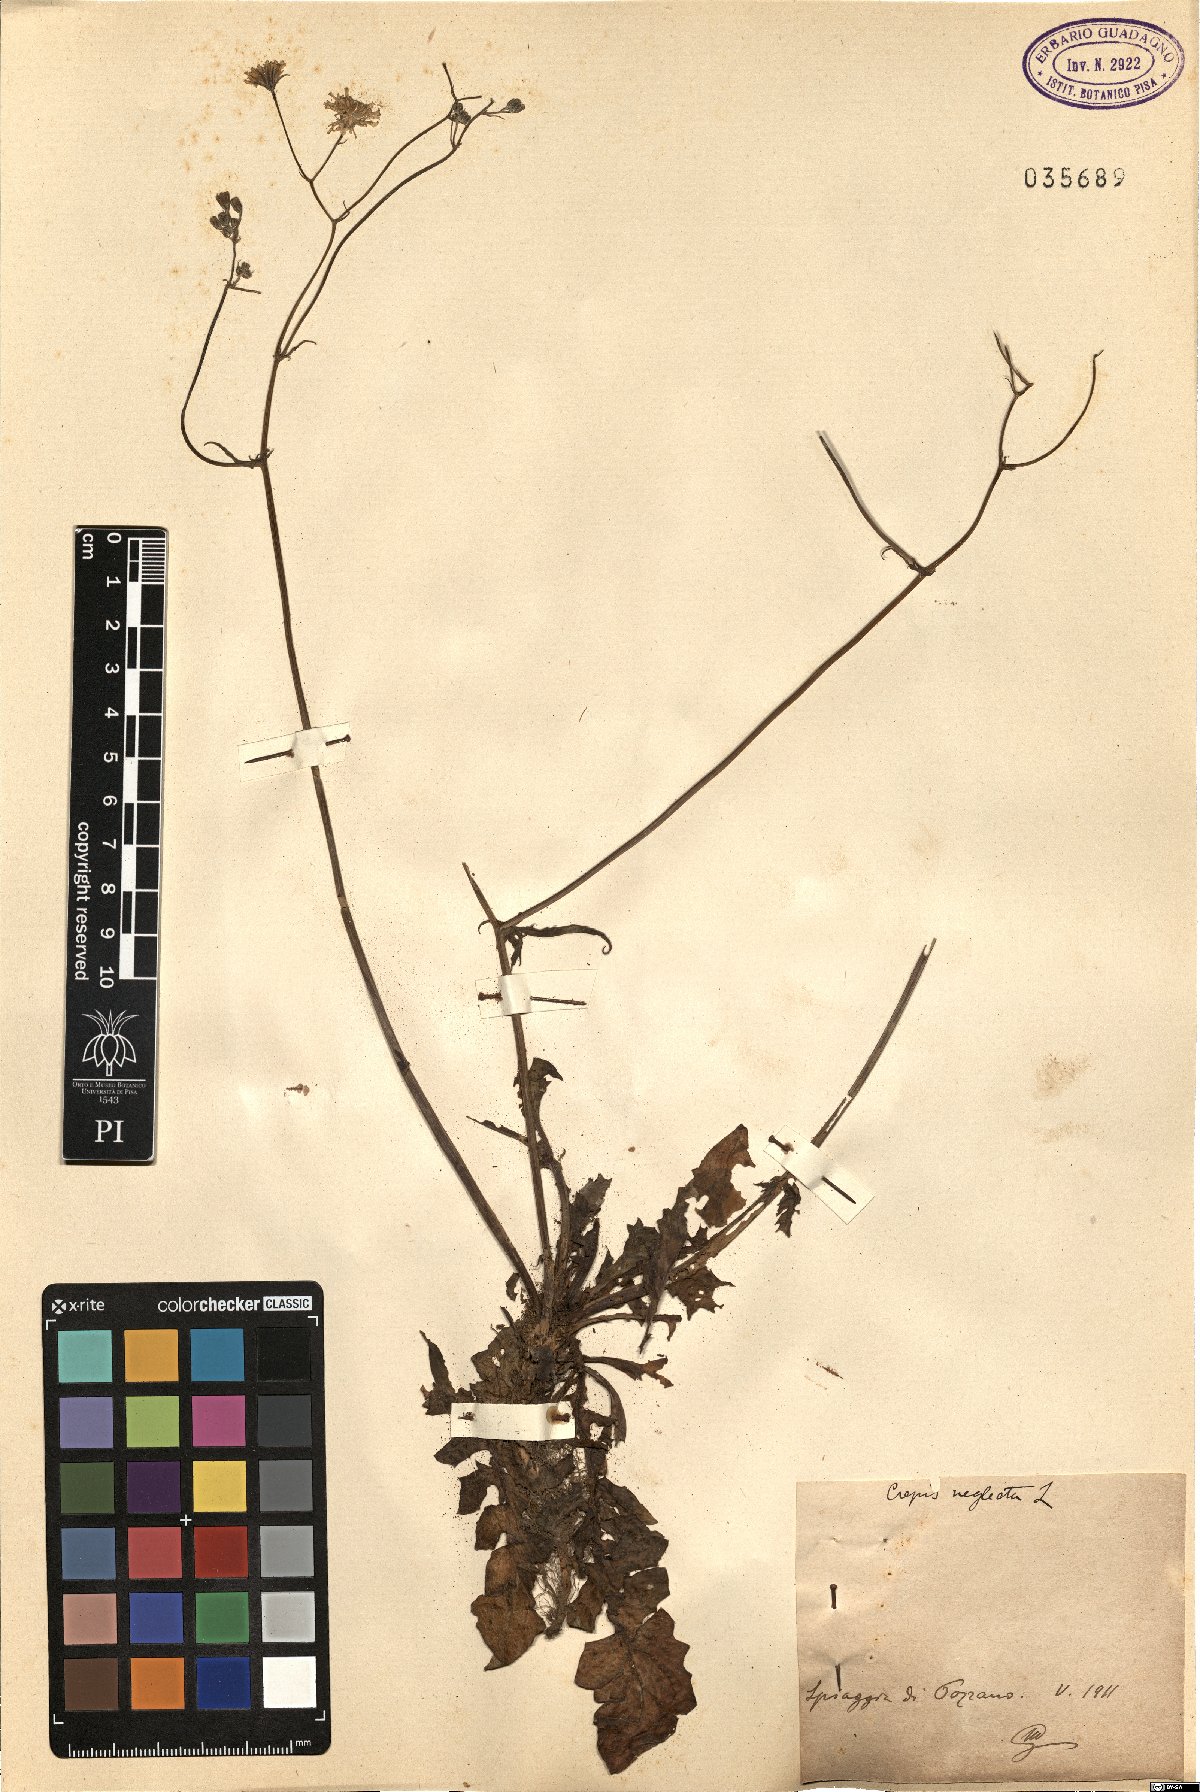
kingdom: Plantae
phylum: Tracheophyta
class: Magnoliopsida
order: Asterales
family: Asteraceae
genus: Crepis
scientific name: Crepis neglecta
